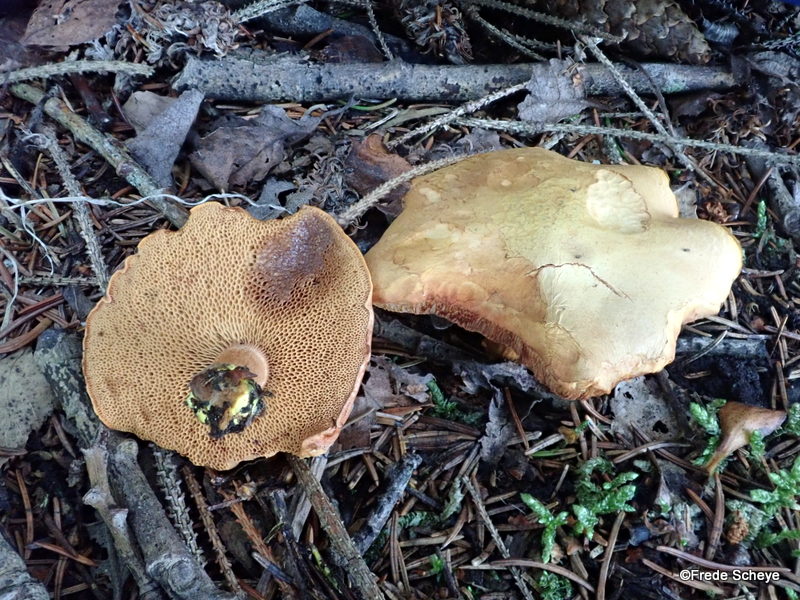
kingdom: Fungi
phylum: Basidiomycota
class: Agaricomycetes
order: Boletales
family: Boletaceae
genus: Chalciporus
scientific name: Chalciporus piperatus
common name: peberrørhat
